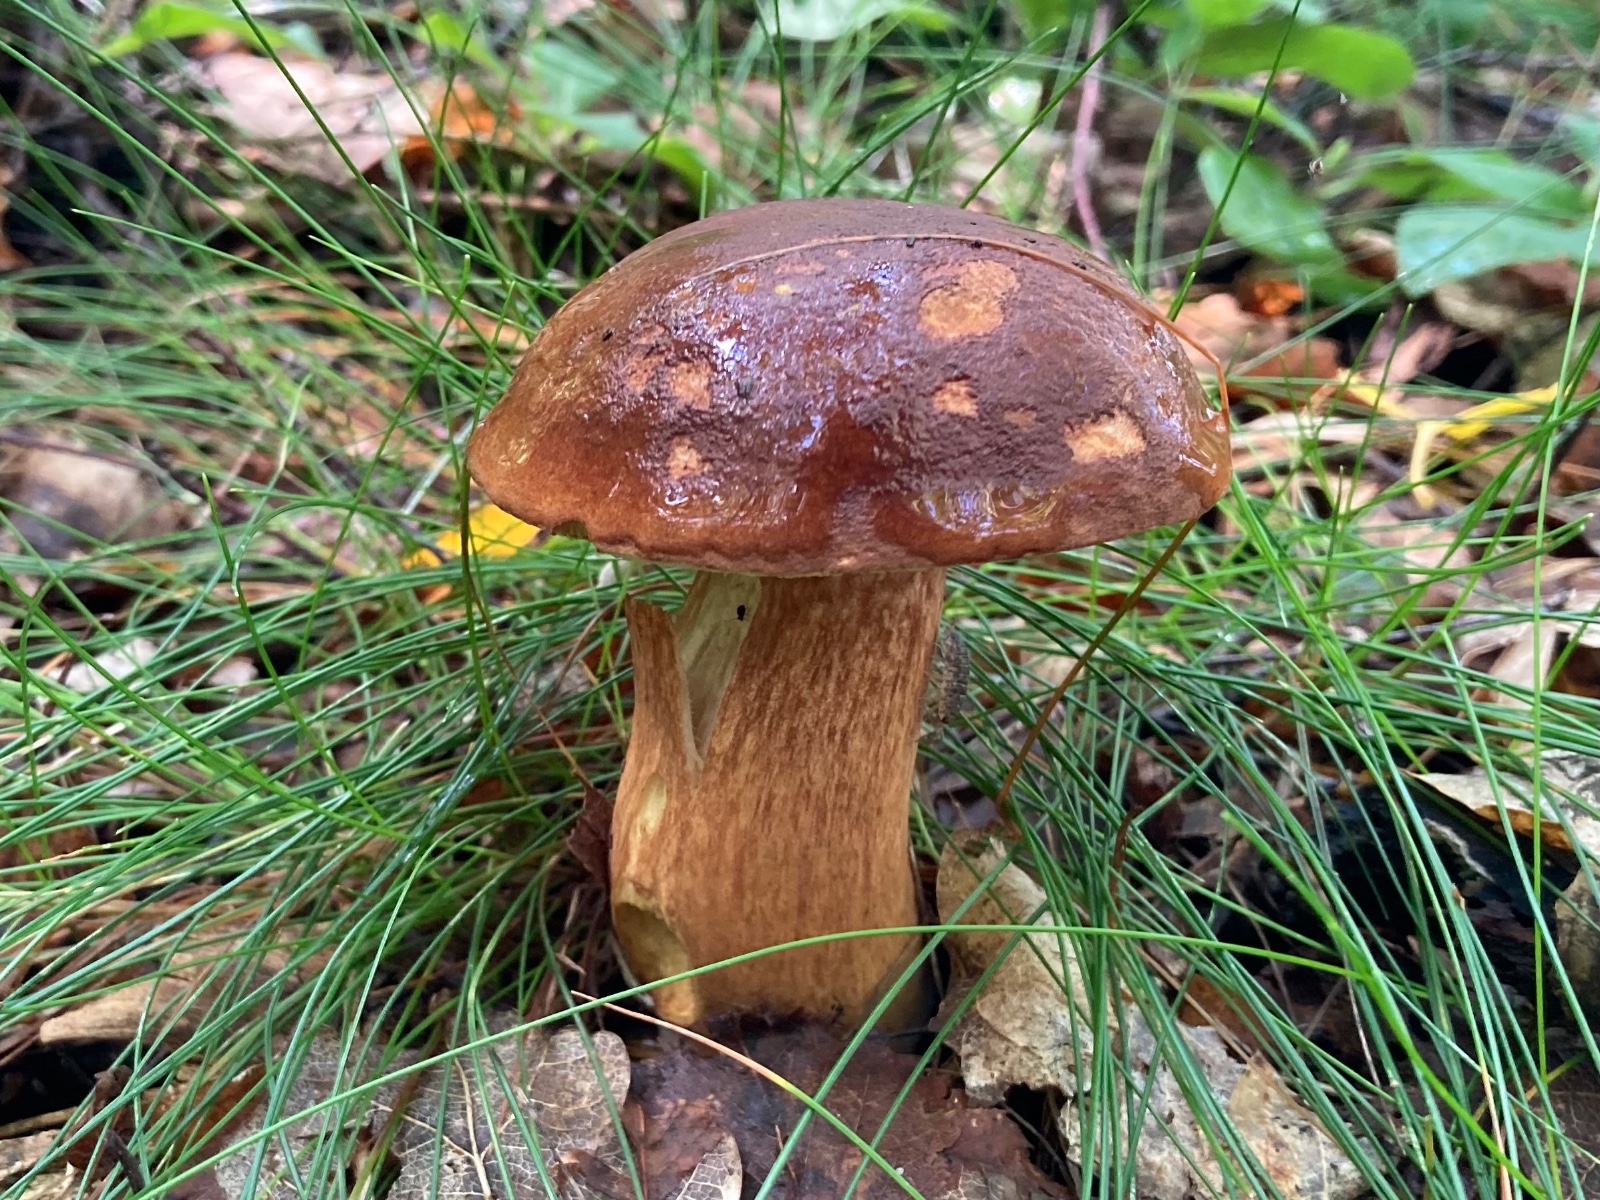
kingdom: Fungi
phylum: Basidiomycota
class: Agaricomycetes
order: Boletales
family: Boletaceae
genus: Imleria
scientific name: Imleria badia
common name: brunstokket rørhat
